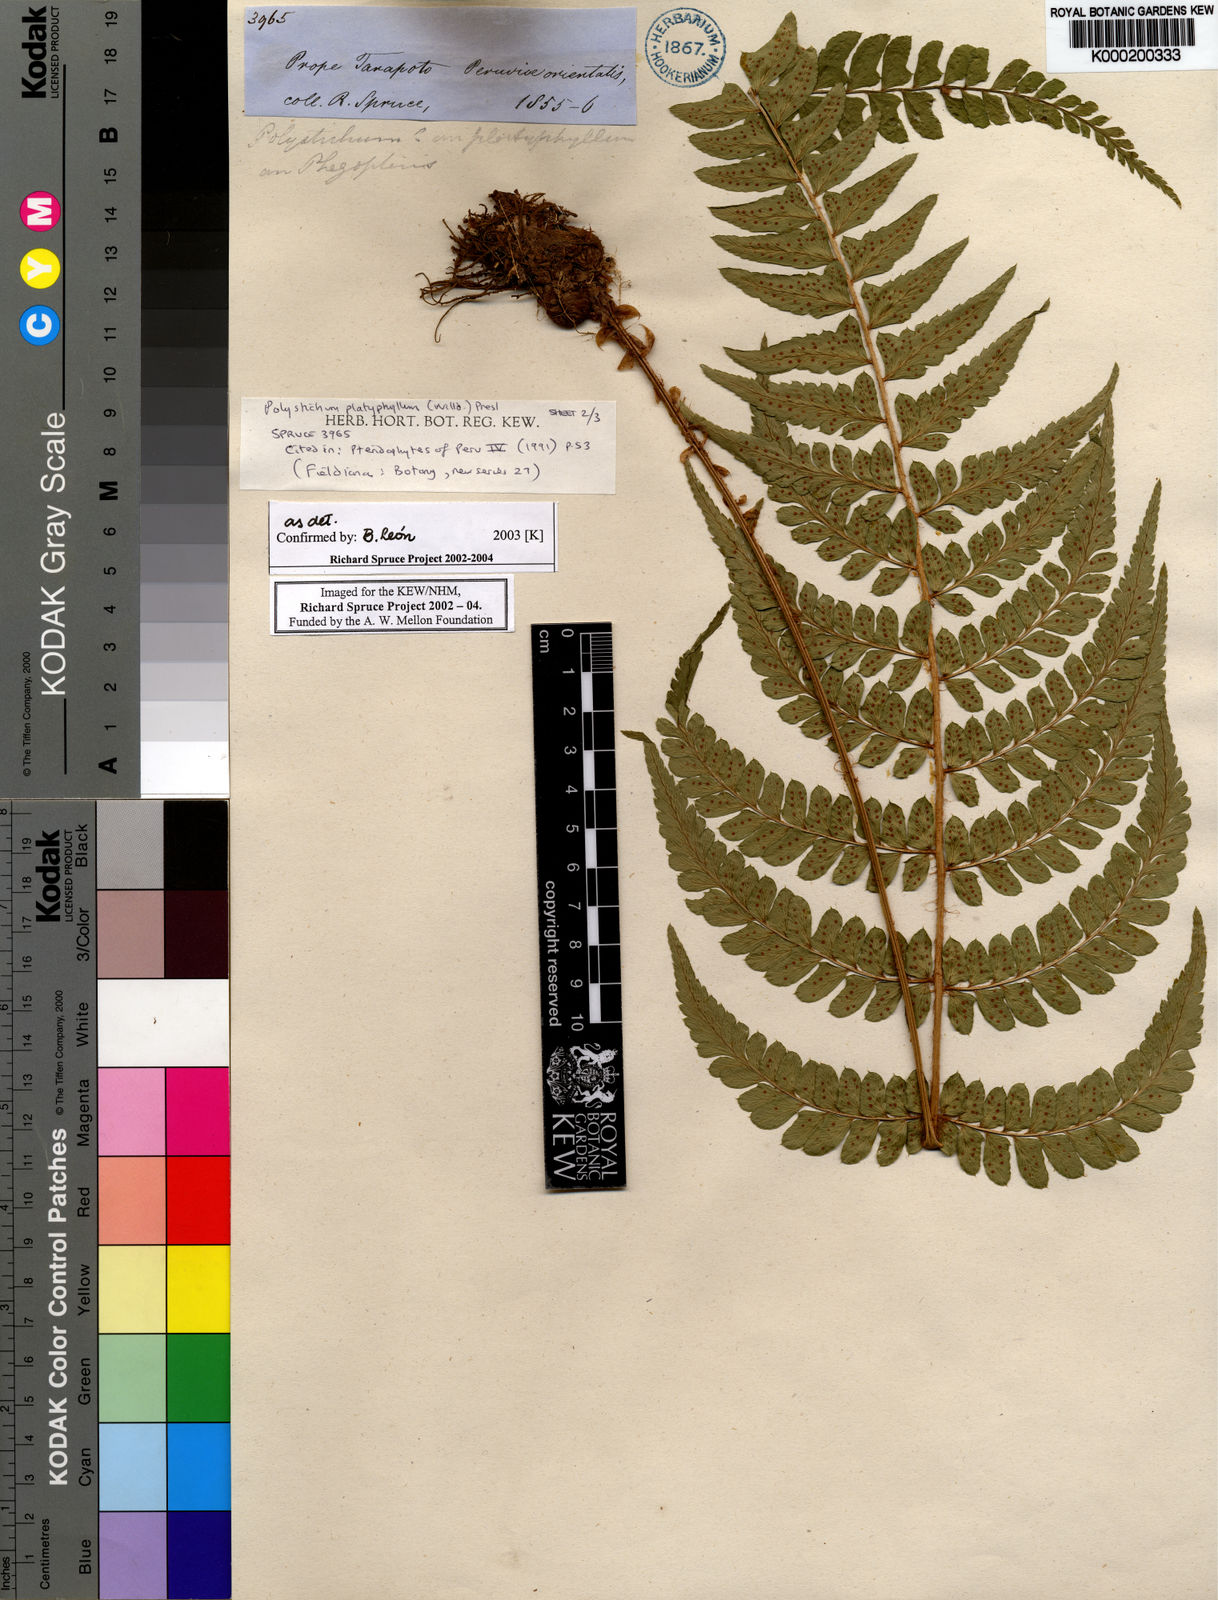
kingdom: Plantae
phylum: Tracheophyta
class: Polypodiopsida
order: Polypodiales
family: Dryopteridaceae
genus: Polystichum
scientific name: Polystichum platyphyllum
